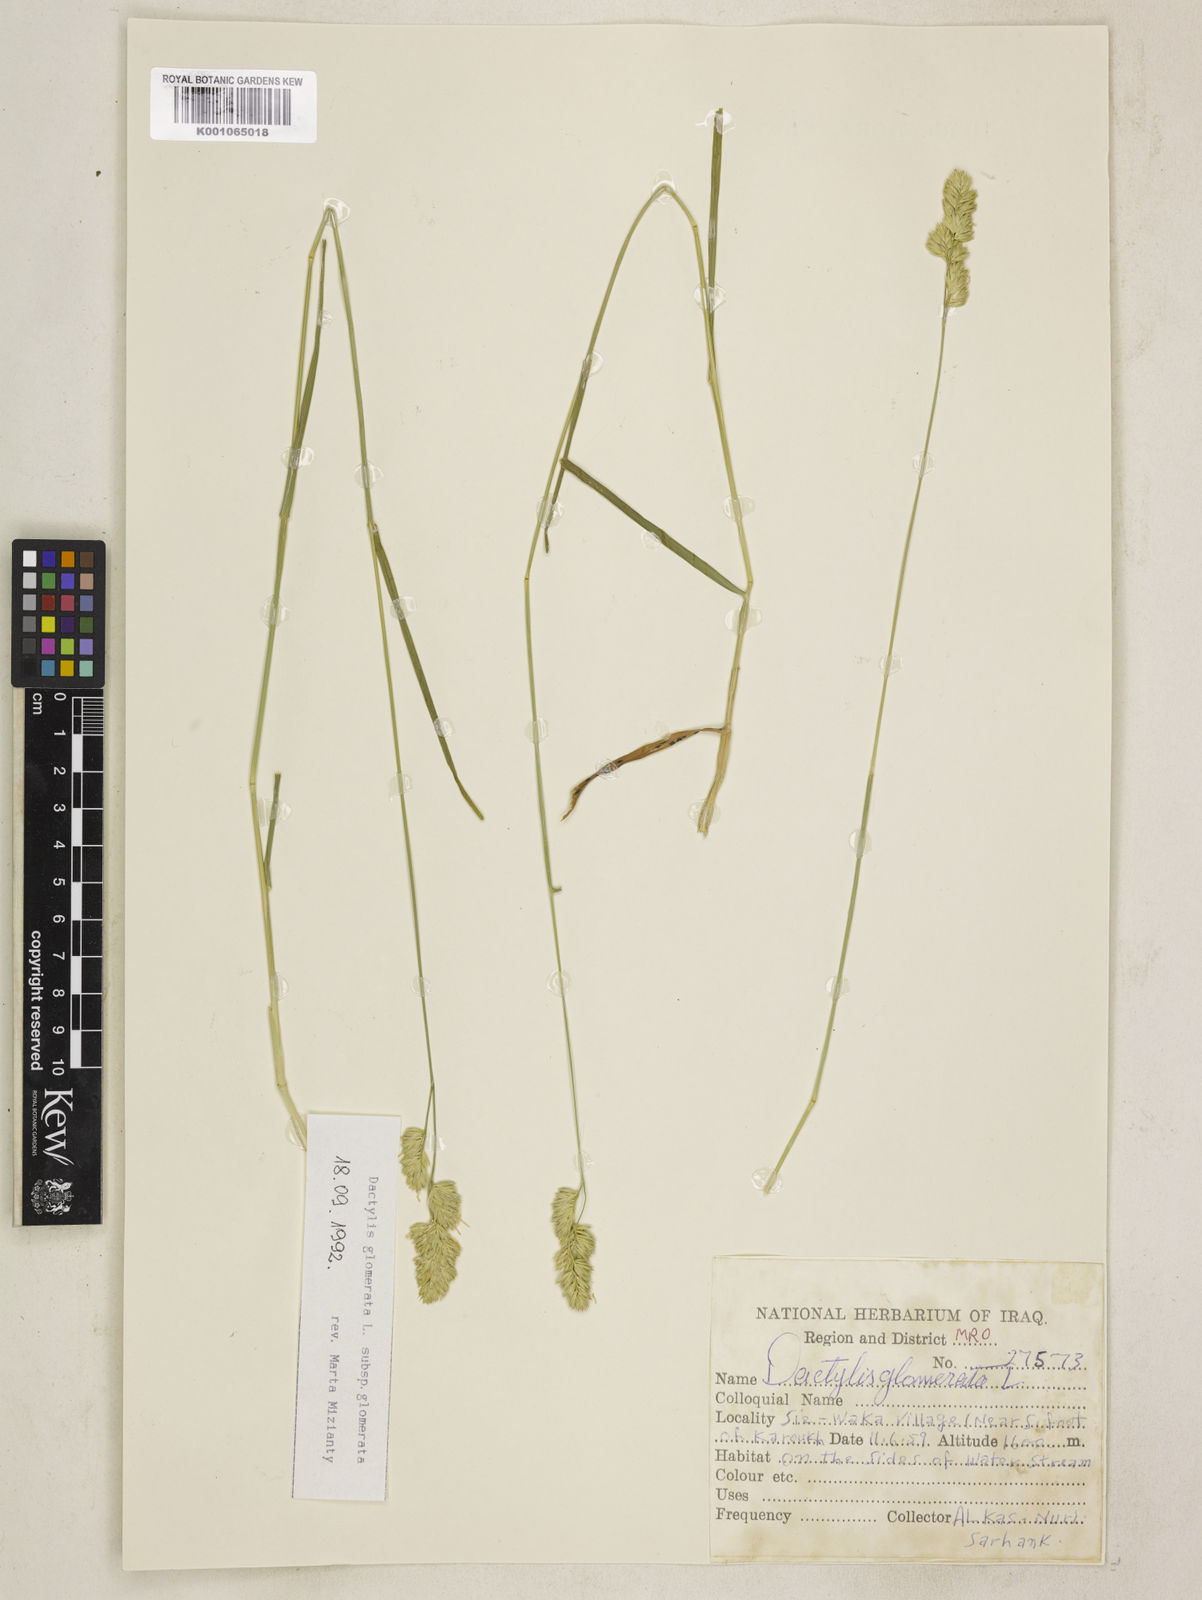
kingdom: Plantae
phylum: Tracheophyta
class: Liliopsida
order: Poales
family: Poaceae
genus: Dactylis
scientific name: Dactylis glomerata
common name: Orchardgrass
